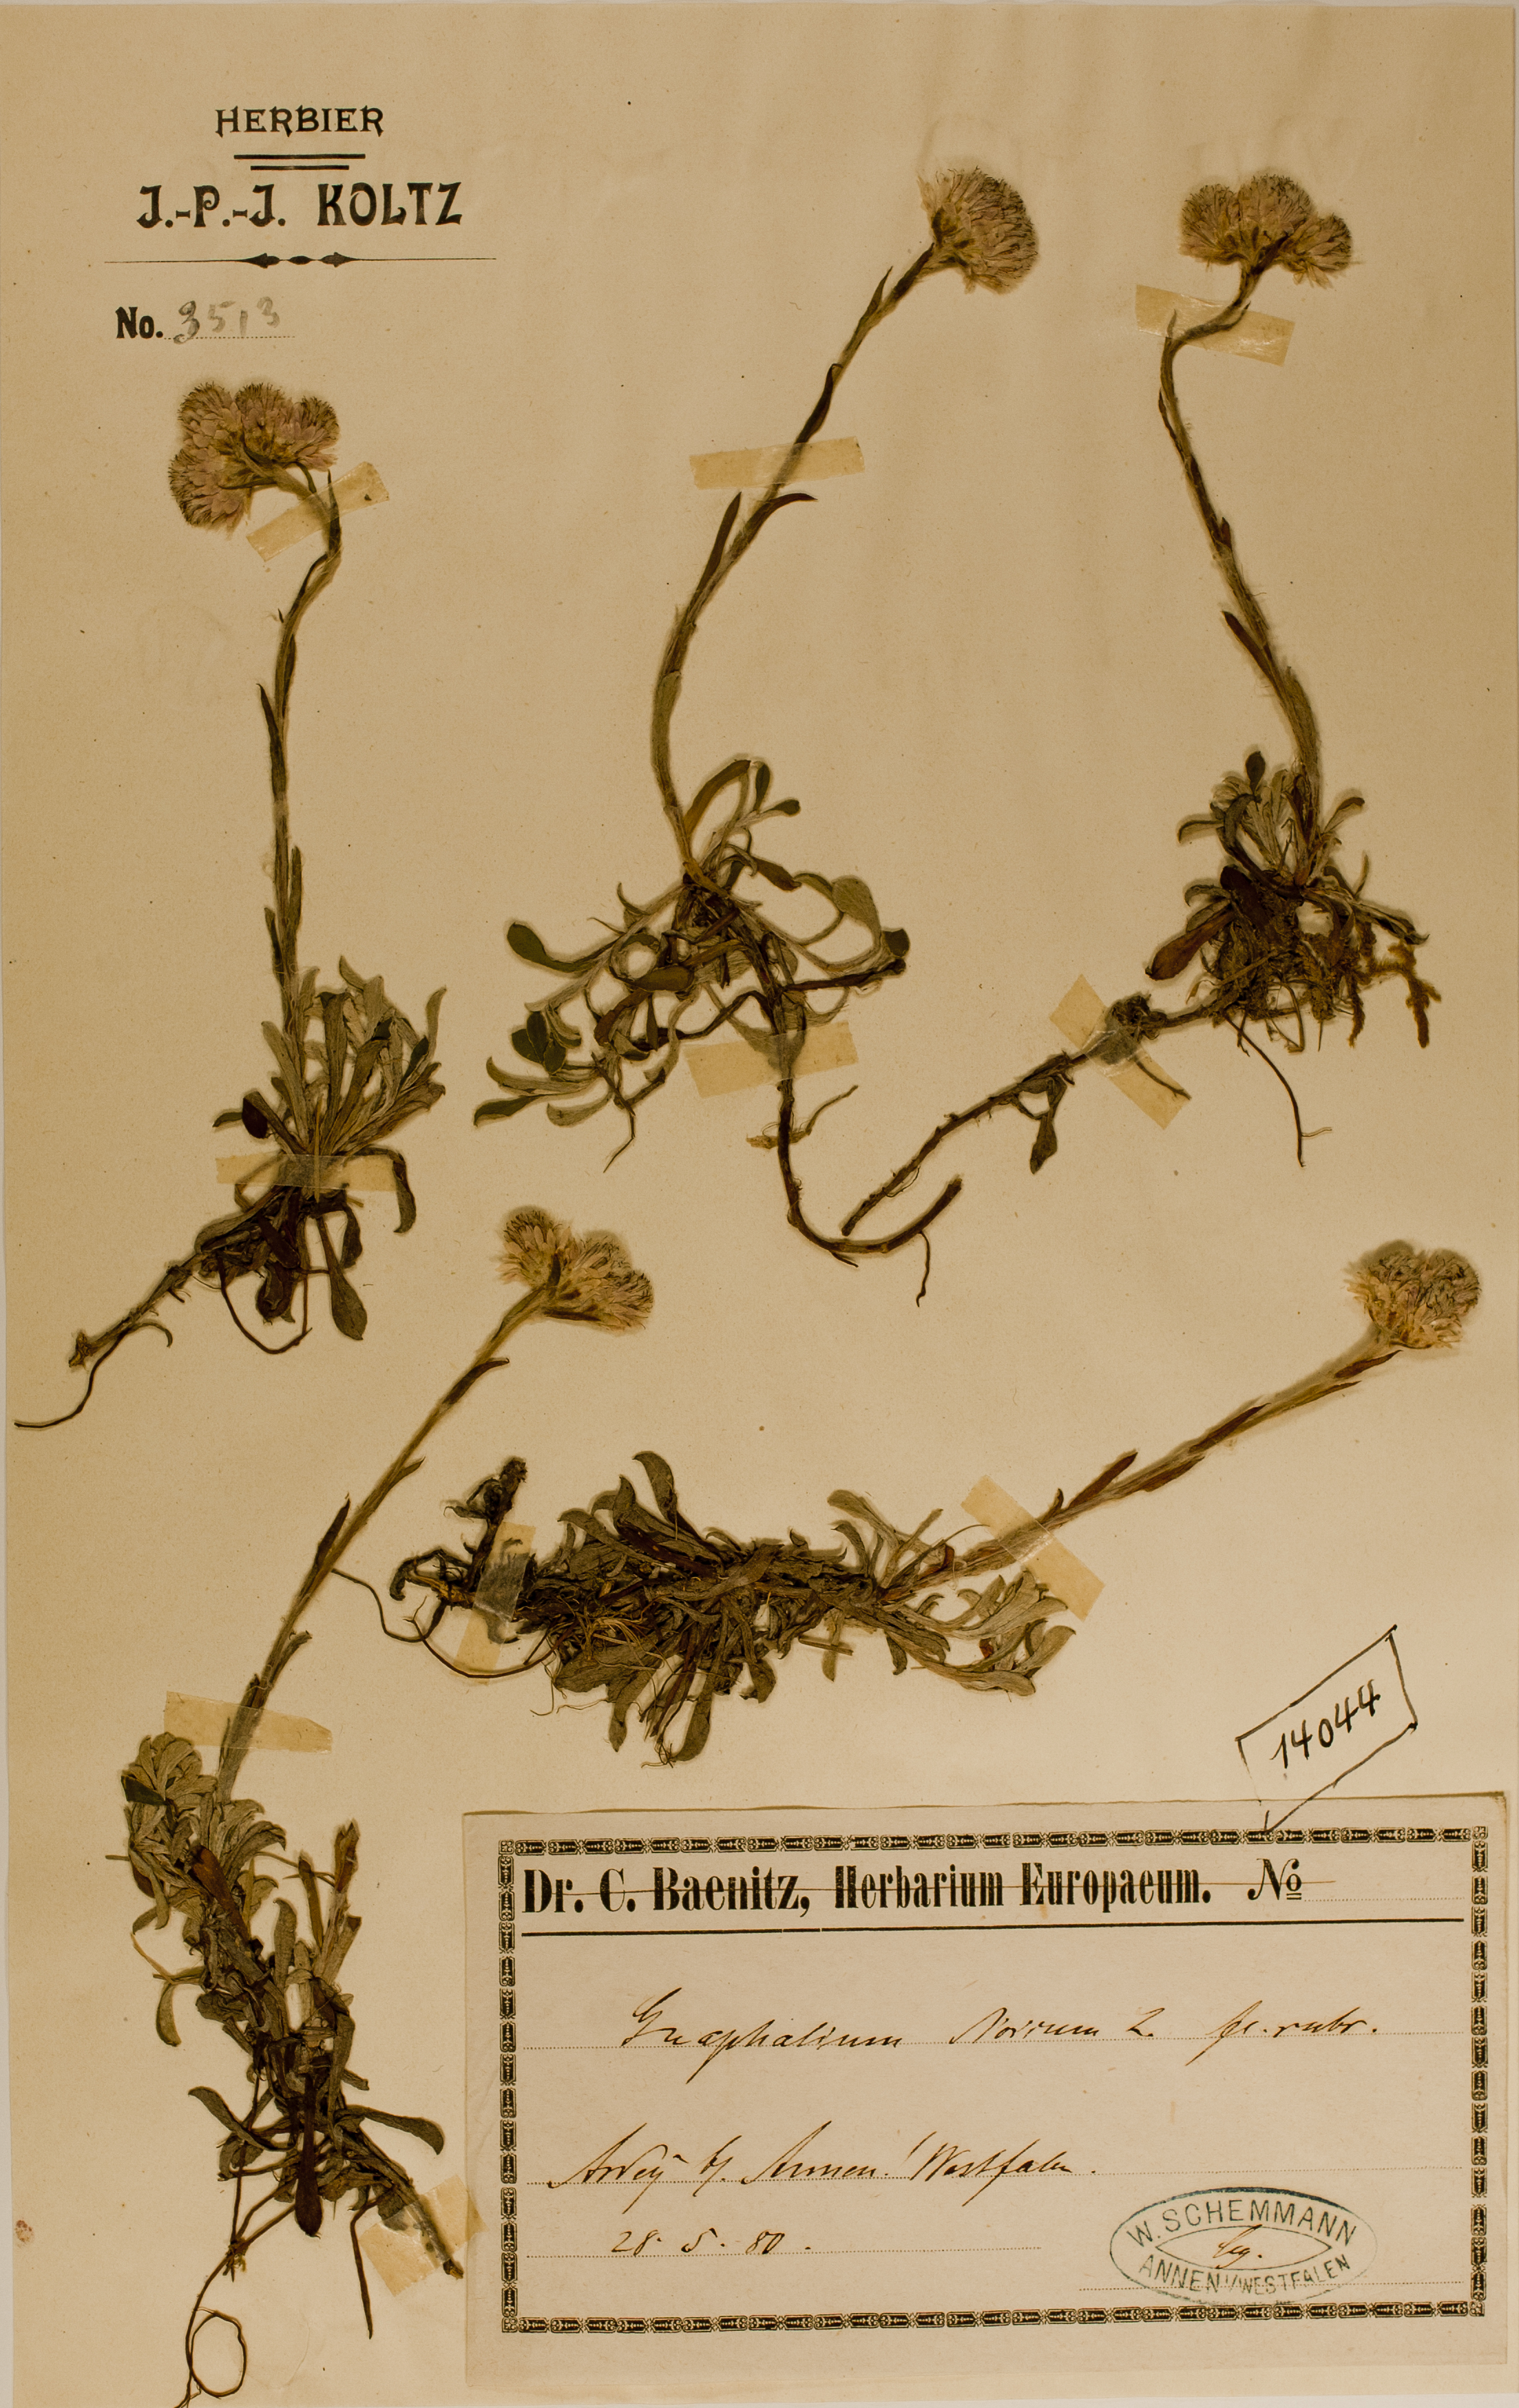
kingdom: Plantae
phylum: Tracheophyta
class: Magnoliopsida
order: Asterales
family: Asteraceae
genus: Antennaria
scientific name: Antennaria dioica
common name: Mountain everlasting
